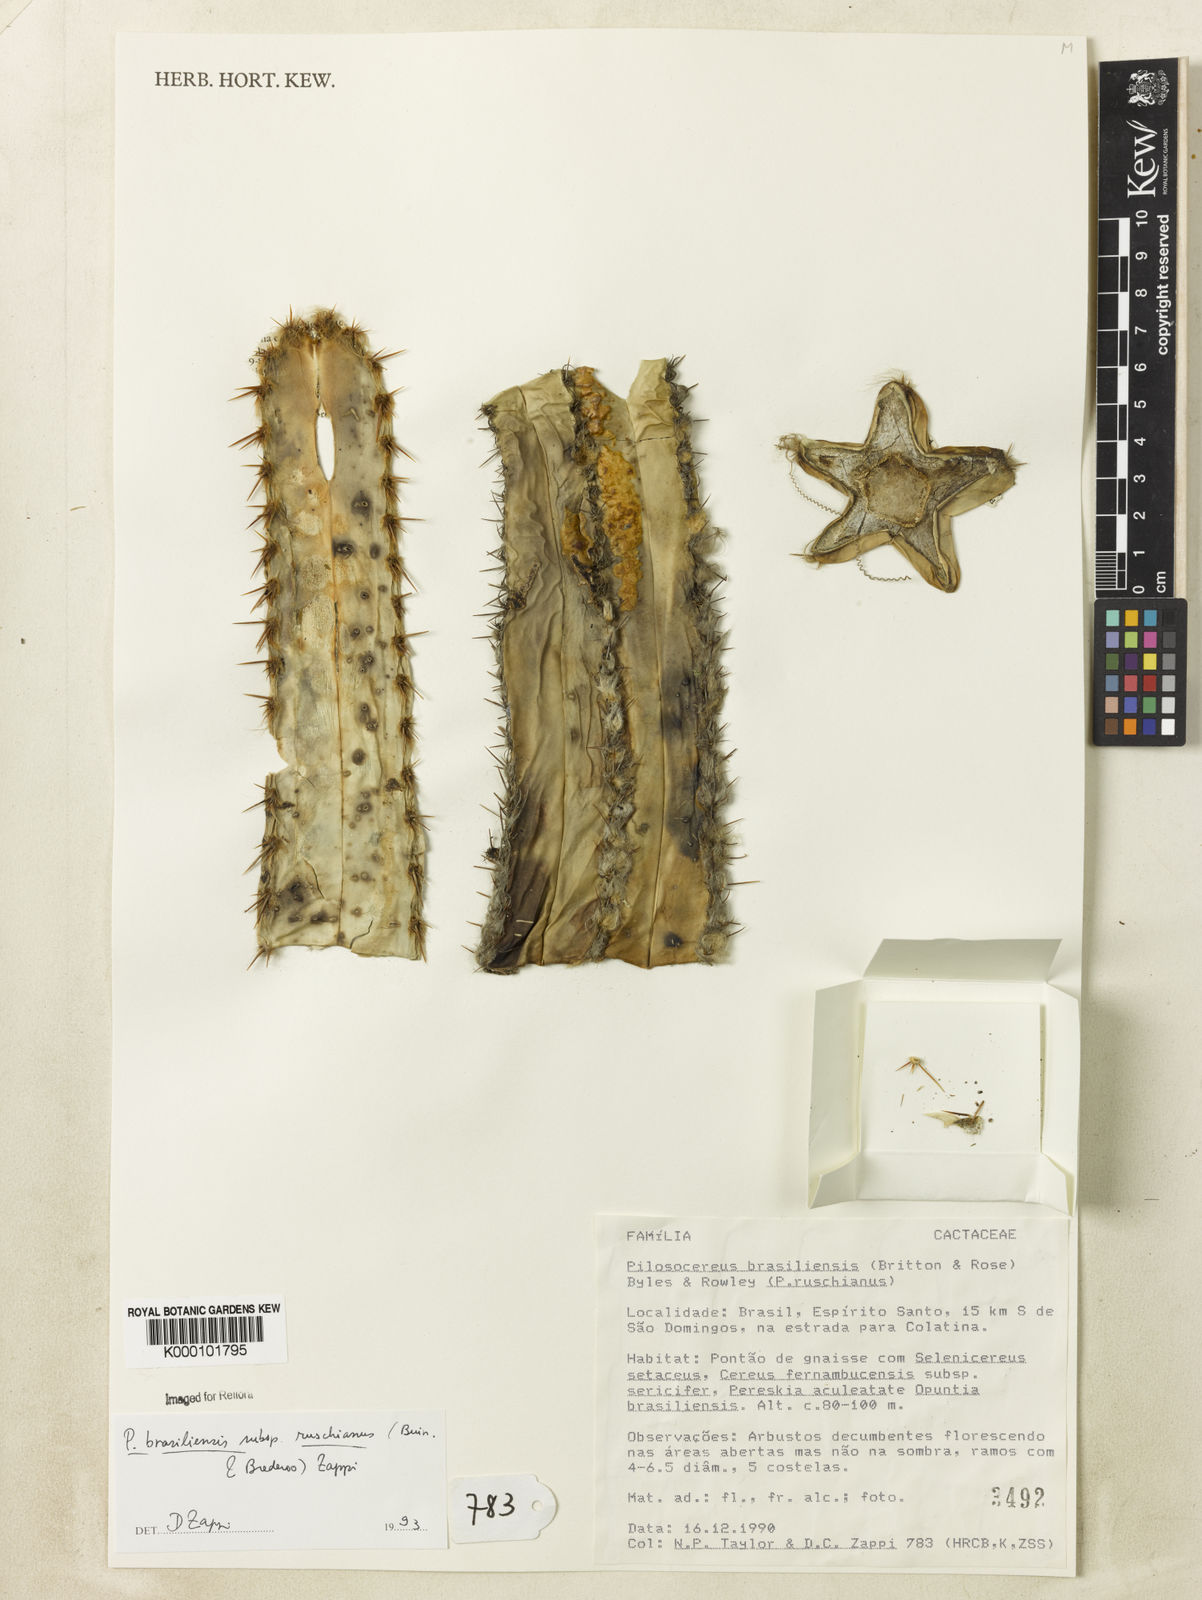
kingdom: Plantae
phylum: Tracheophyta
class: Magnoliopsida
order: Caryophyllales
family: Cactaceae
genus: Pilosocereus
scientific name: Pilosocereus brasiliensis
